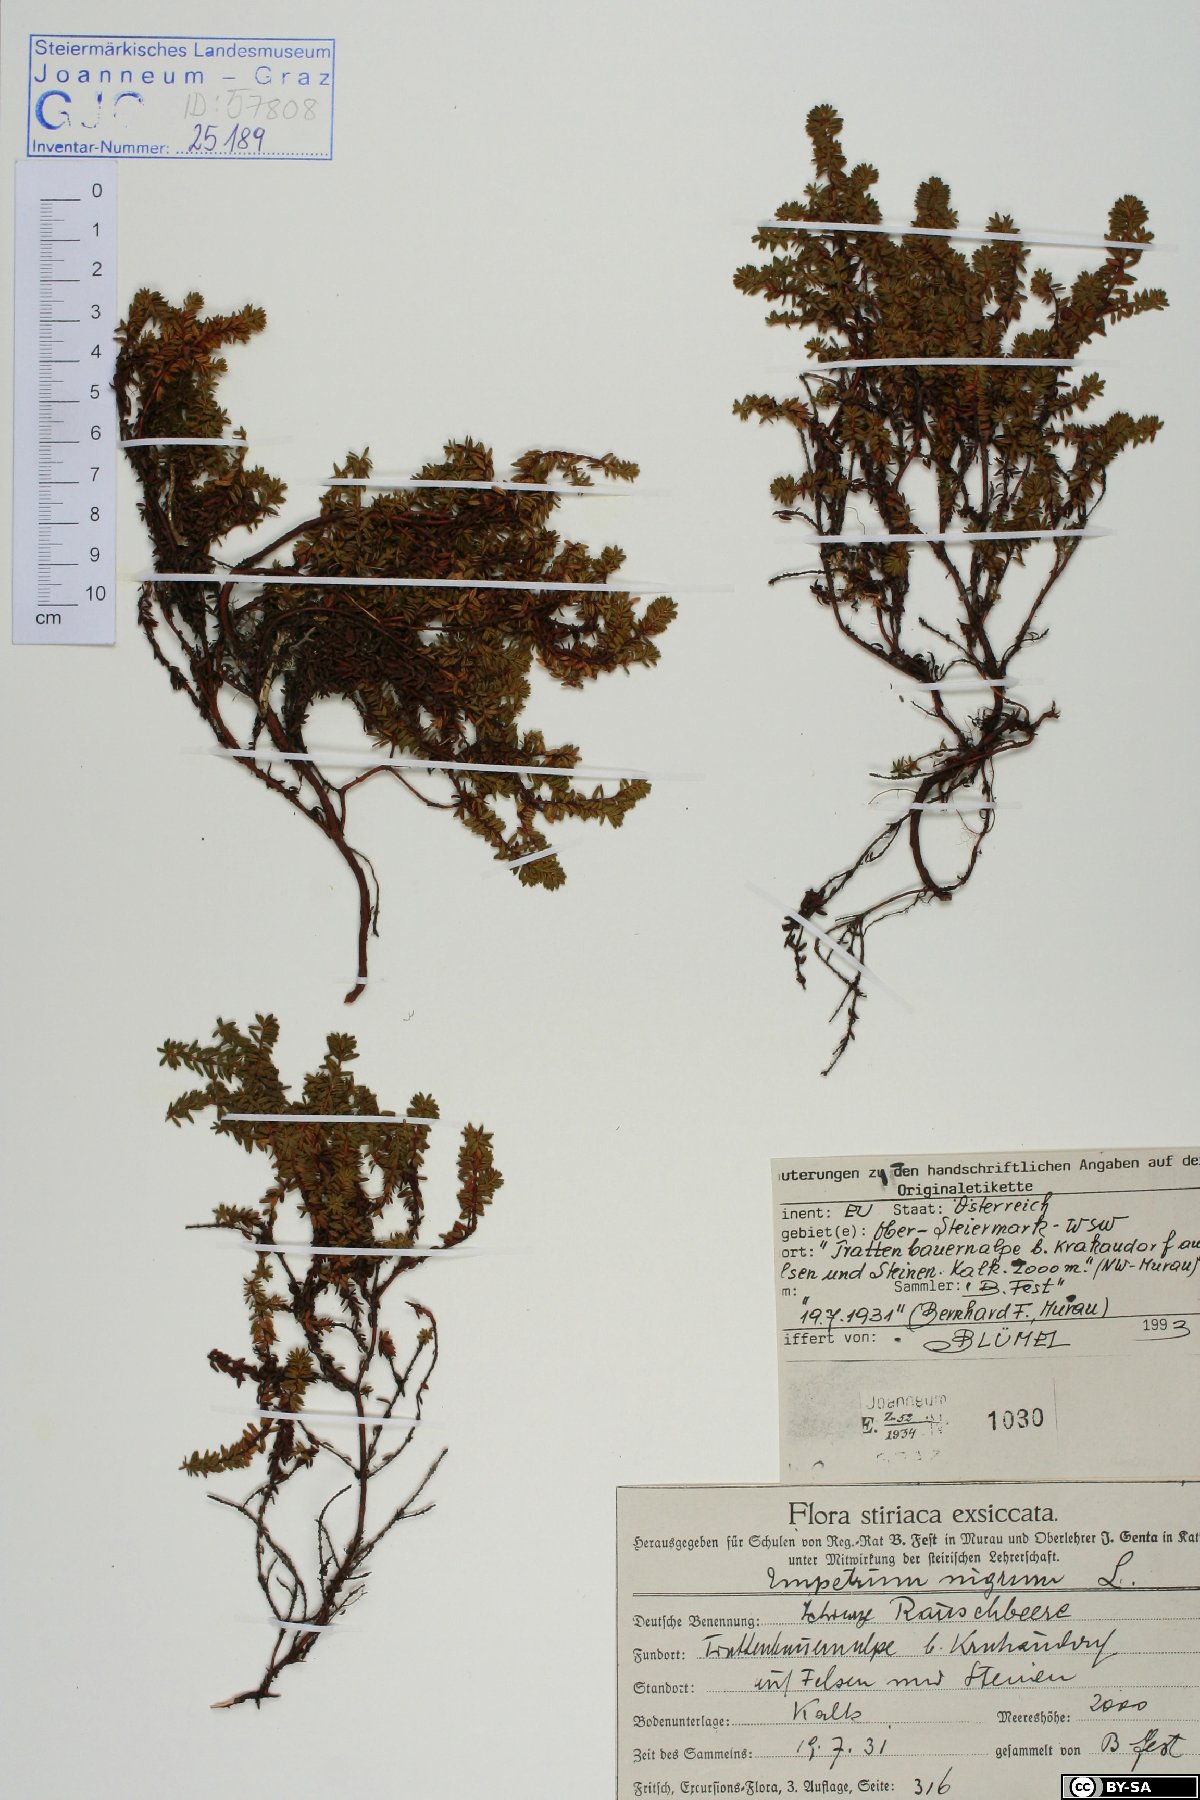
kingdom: Plantae
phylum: Tracheophyta
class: Magnoliopsida
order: Ericales
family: Ericaceae
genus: Empetrum
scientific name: Empetrum hermaphroditum
